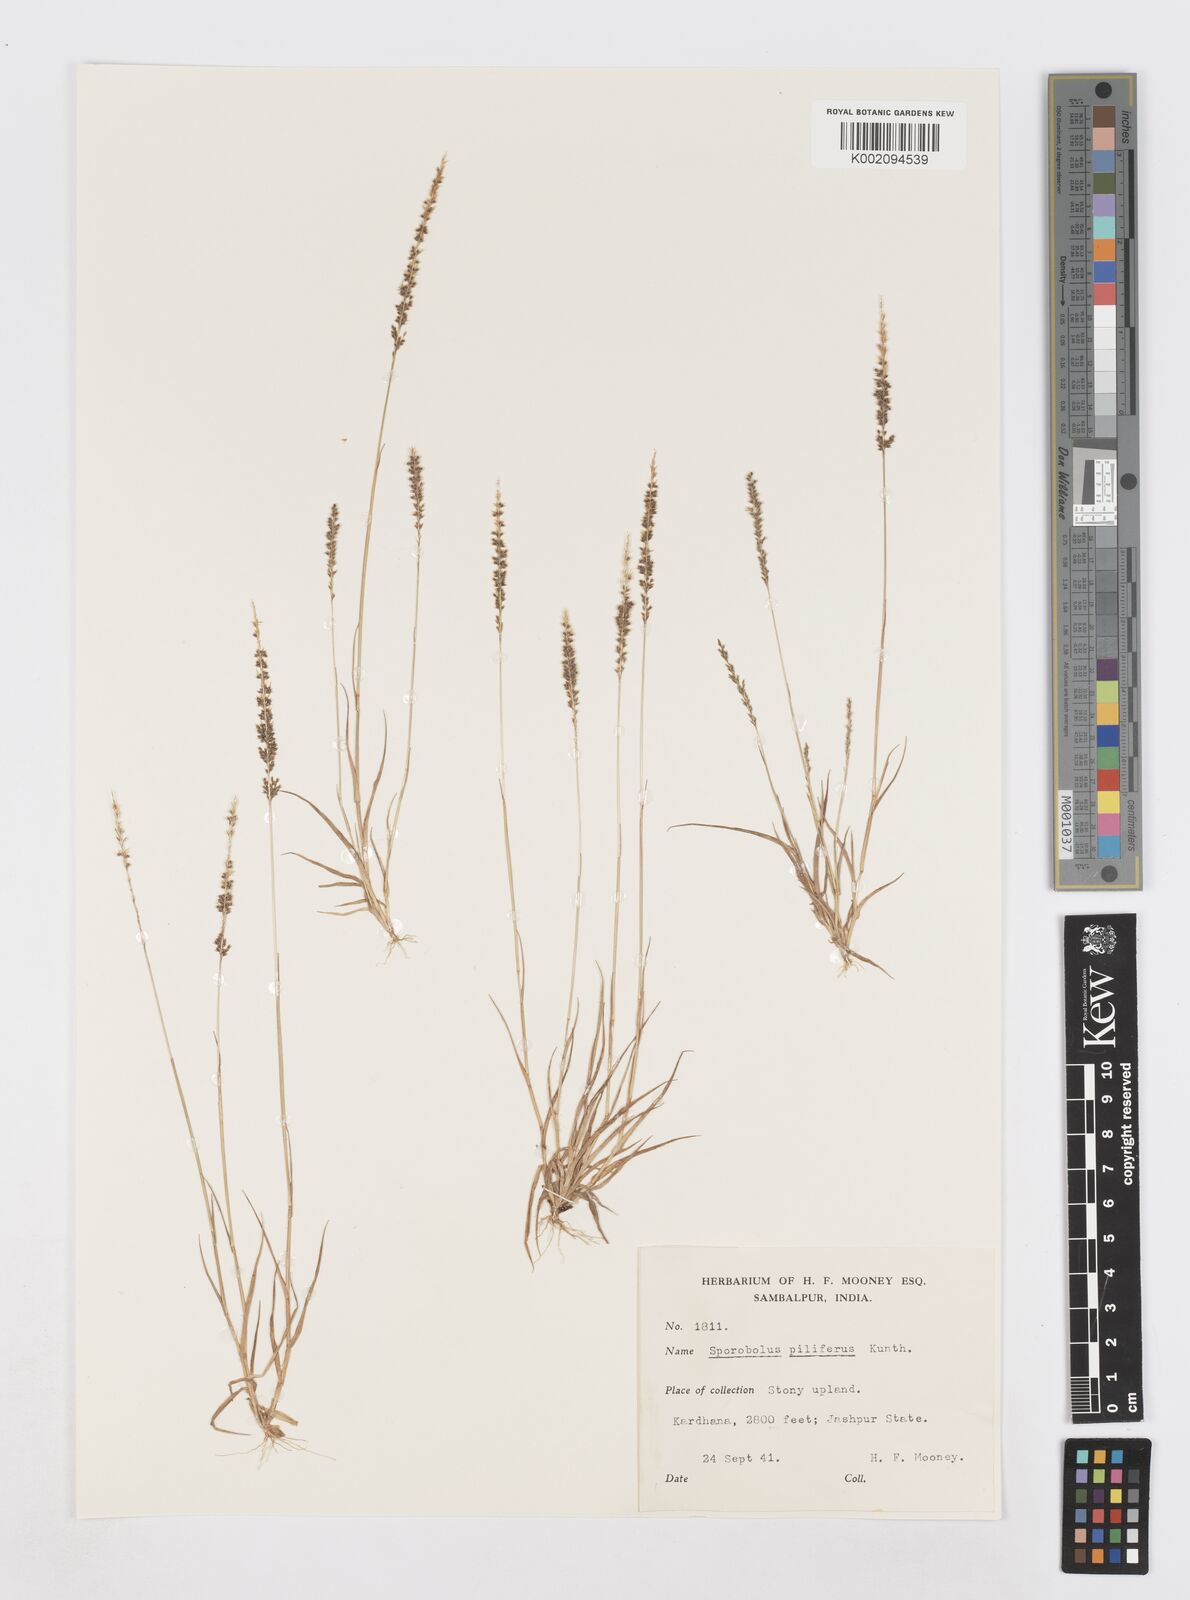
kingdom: Plantae
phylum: Tracheophyta
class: Liliopsida
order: Poales
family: Poaceae
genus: Sporobolus
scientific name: Sporobolus pilifer
